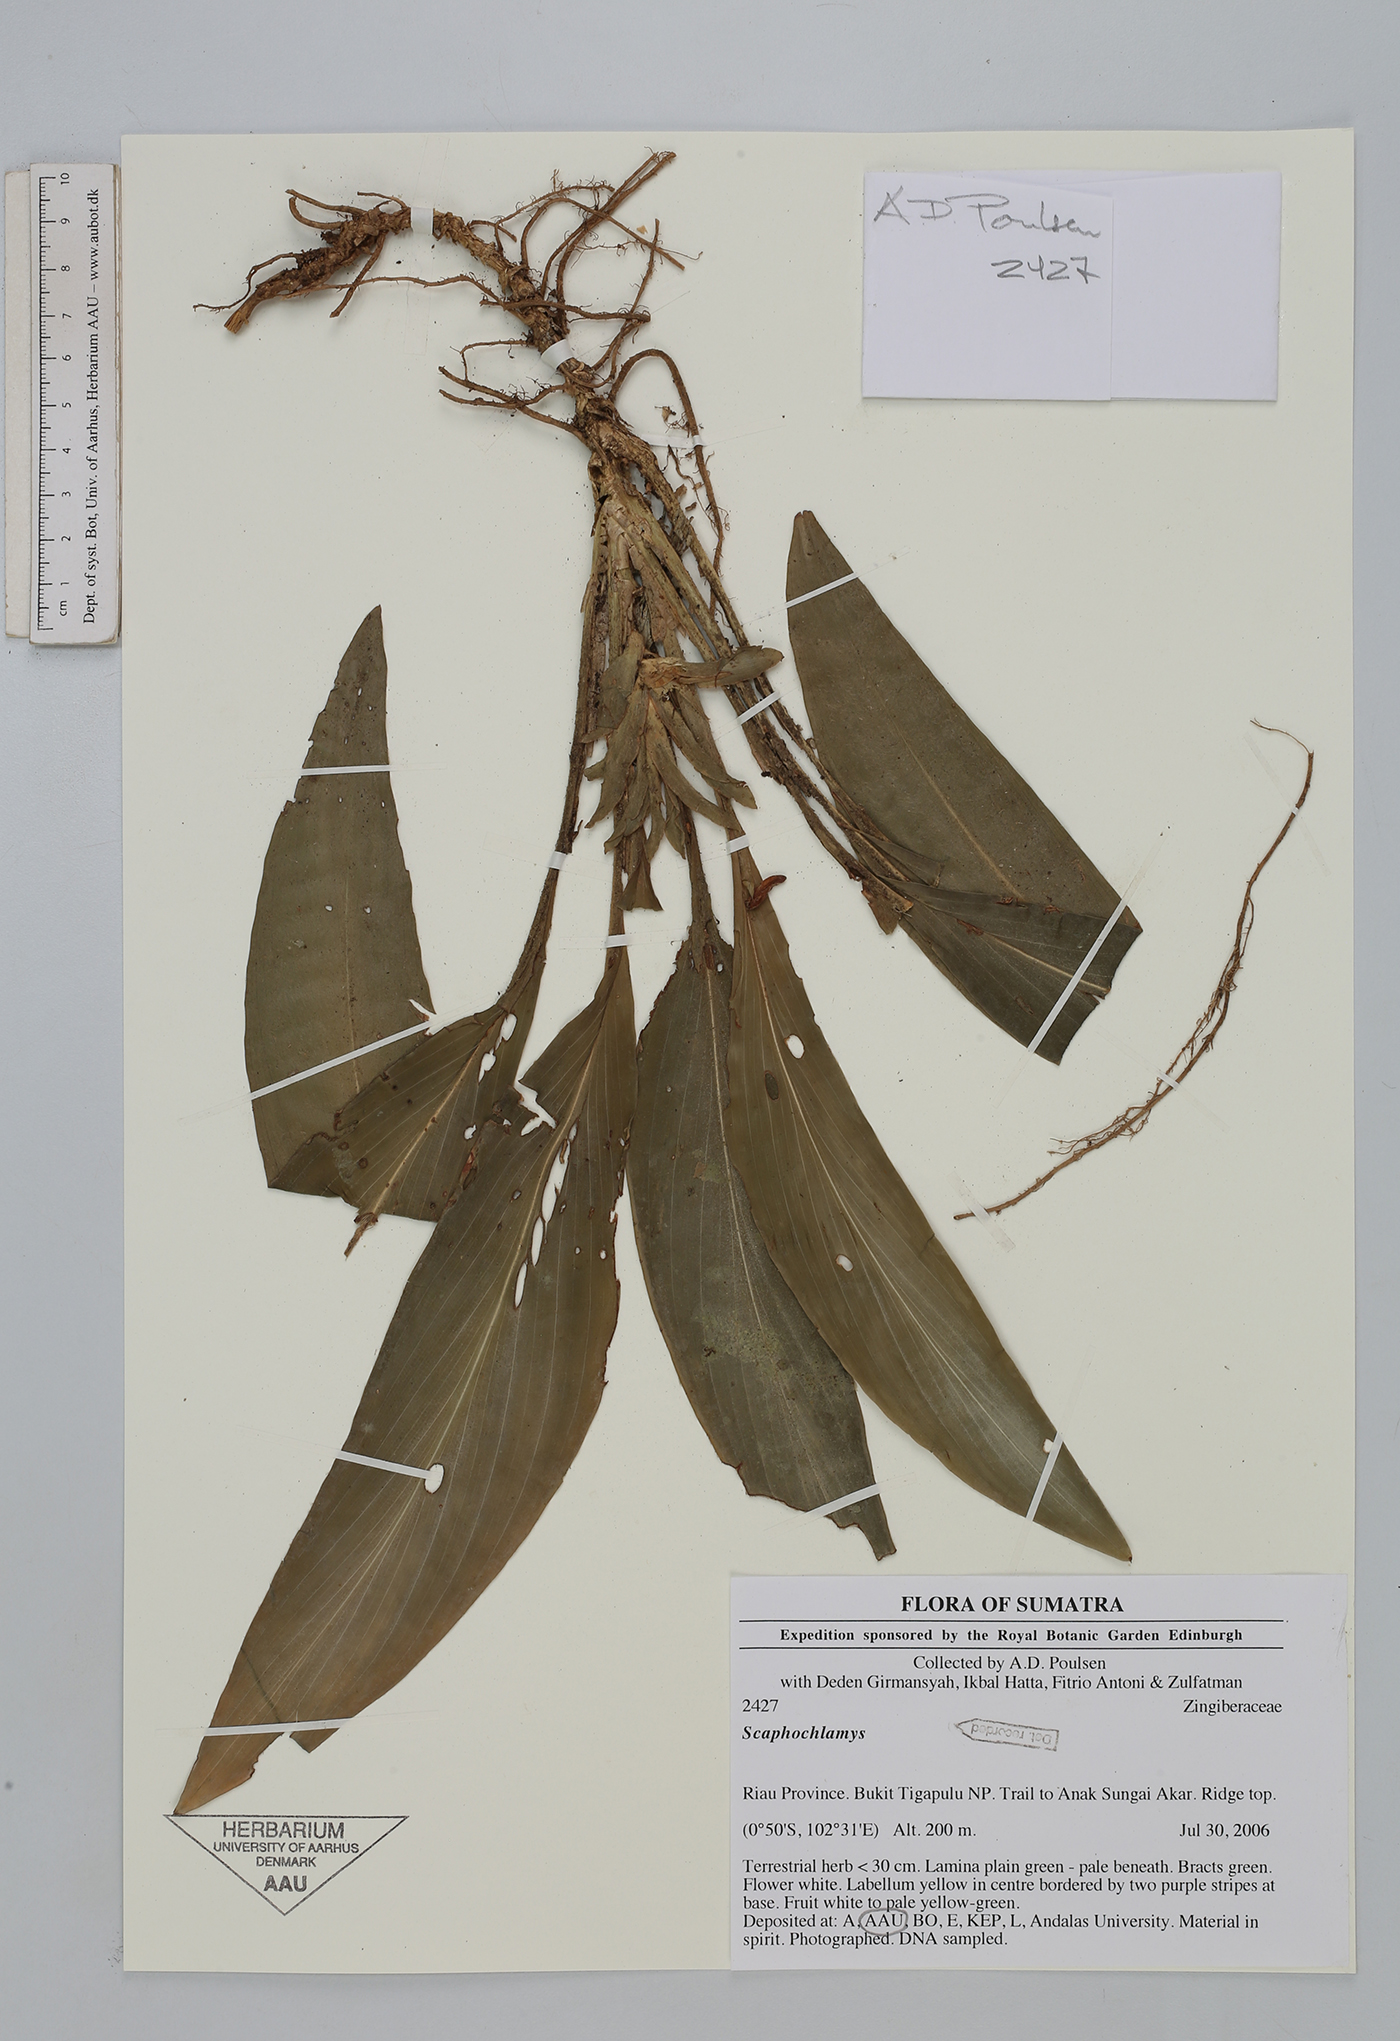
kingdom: Plantae
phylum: Tracheophyta
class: Liliopsida
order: Zingiberales
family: Zingiberaceae
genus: Scaphochlamys
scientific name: Scaphochlamys
